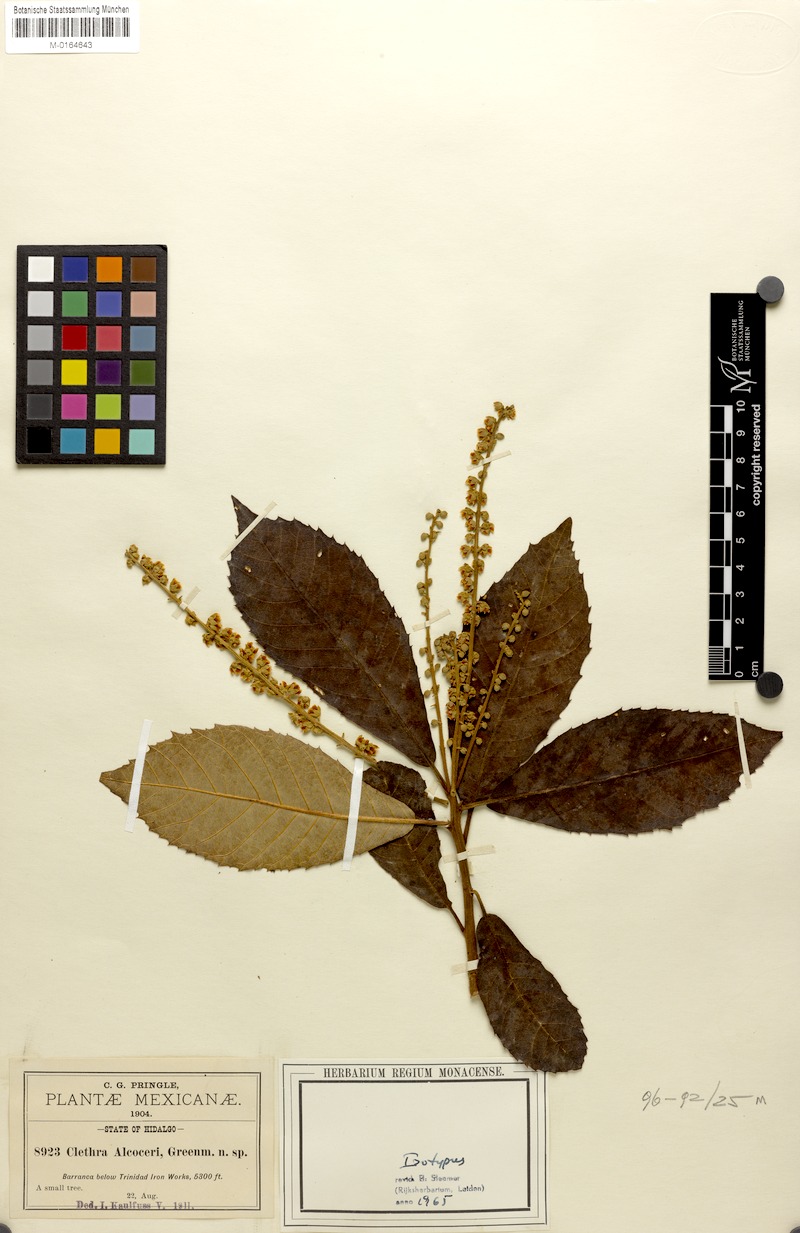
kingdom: Plantae
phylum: Tracheophyta
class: Magnoliopsida
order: Ericales
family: Clethraceae
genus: Clethra
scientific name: Clethra alcoceri
